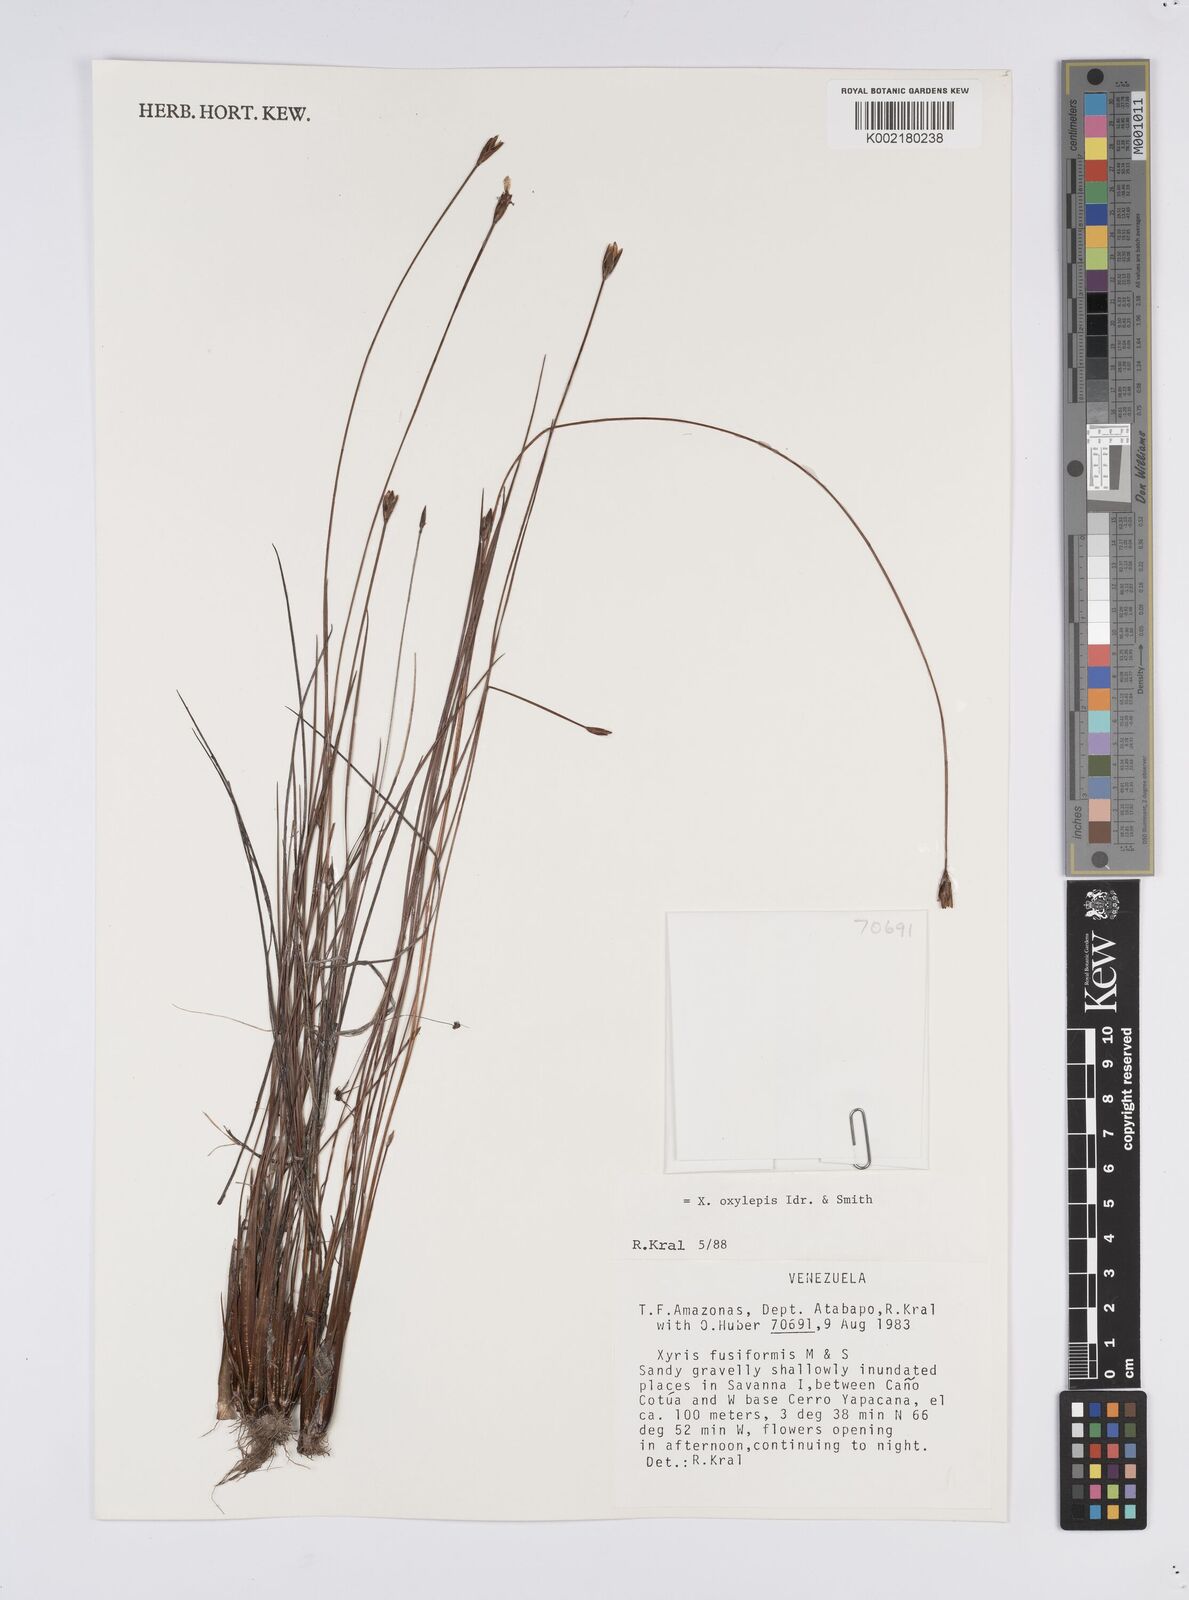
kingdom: Plantae
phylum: Tracheophyta
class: Liliopsida
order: Poales
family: Xyridaceae
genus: Xyris
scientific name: Xyris oxylepis
